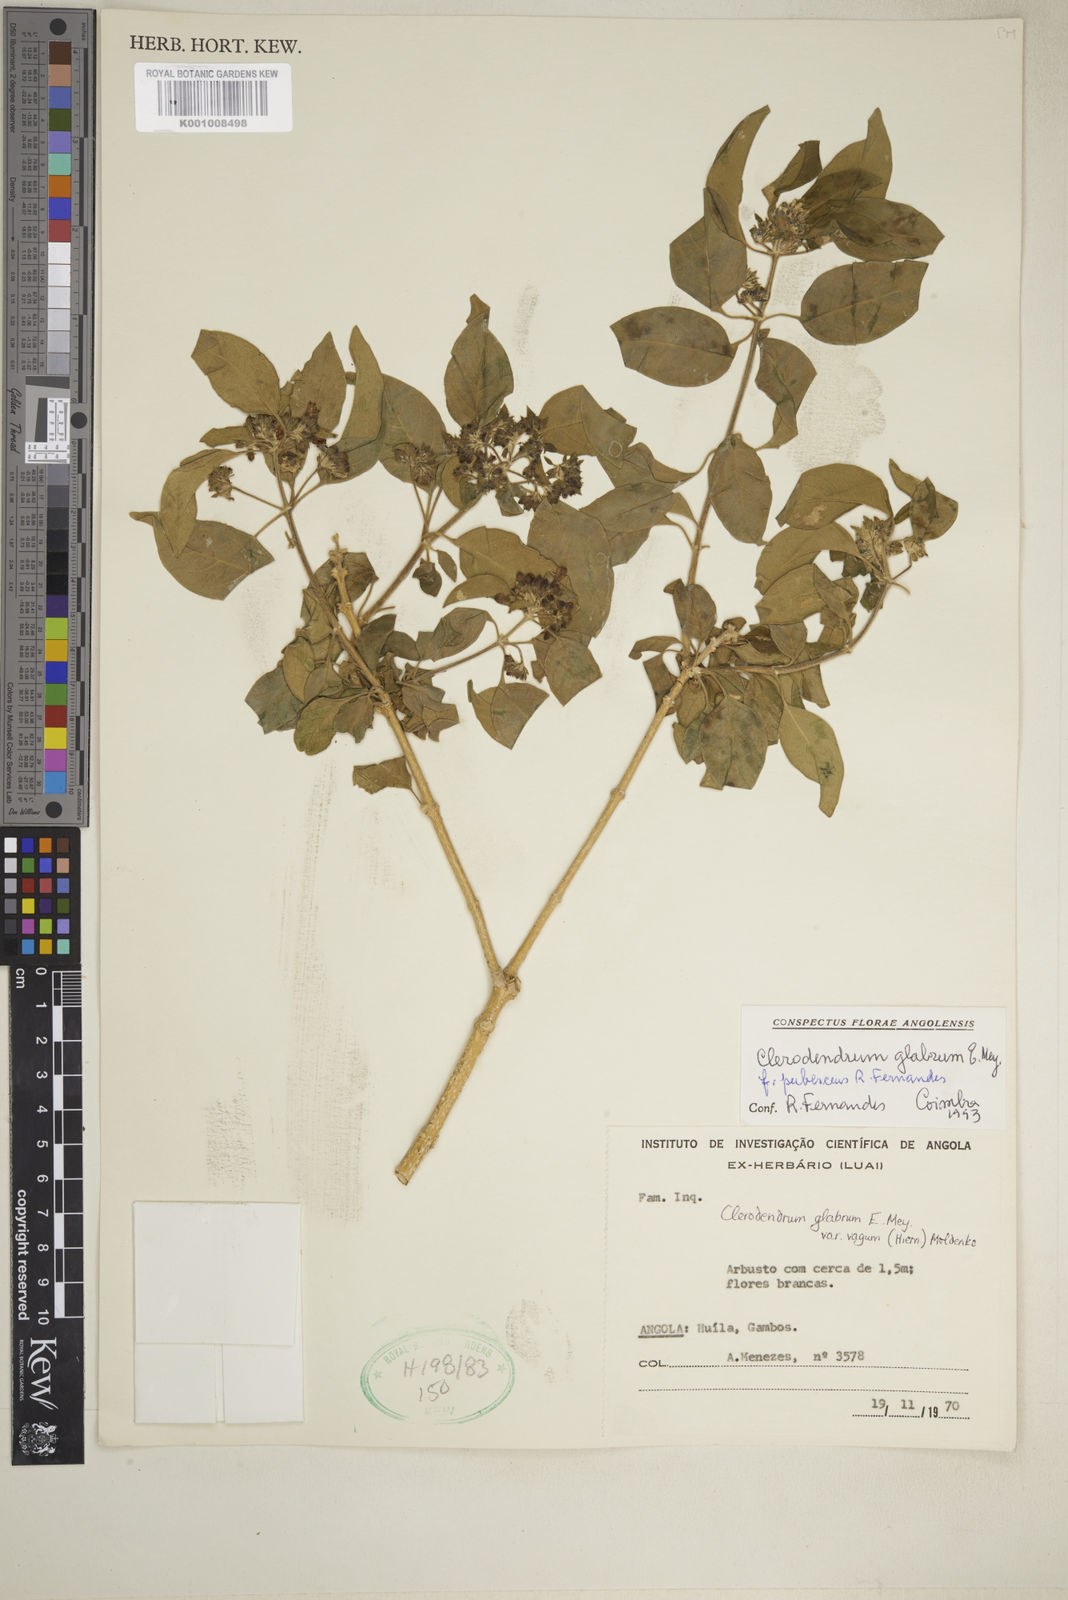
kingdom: Plantae
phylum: Tracheophyta
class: Magnoliopsida
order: Lamiales
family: Lamiaceae
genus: Volkameria
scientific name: Volkameria glabra
